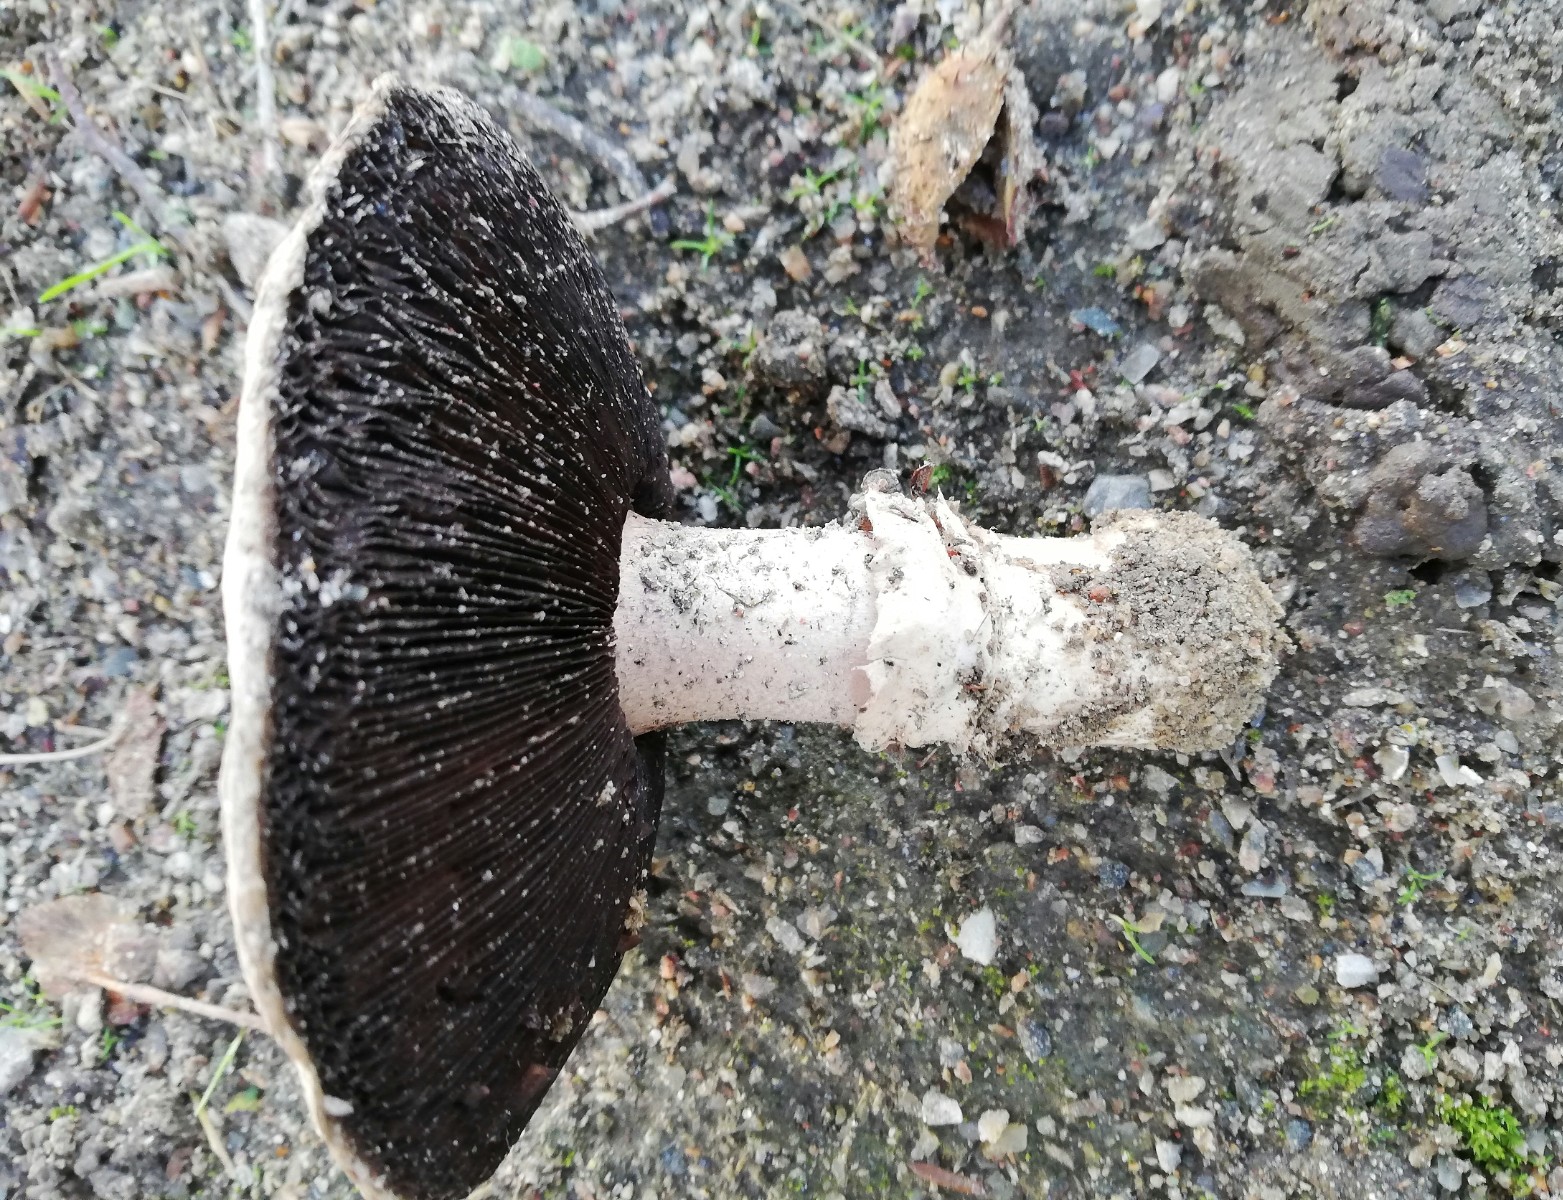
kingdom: Fungi
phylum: Basidiomycota
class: Agaricomycetes
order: Agaricales
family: Agaricaceae
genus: Agaricus
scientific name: Agaricus bitorquis
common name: vej-champignon
